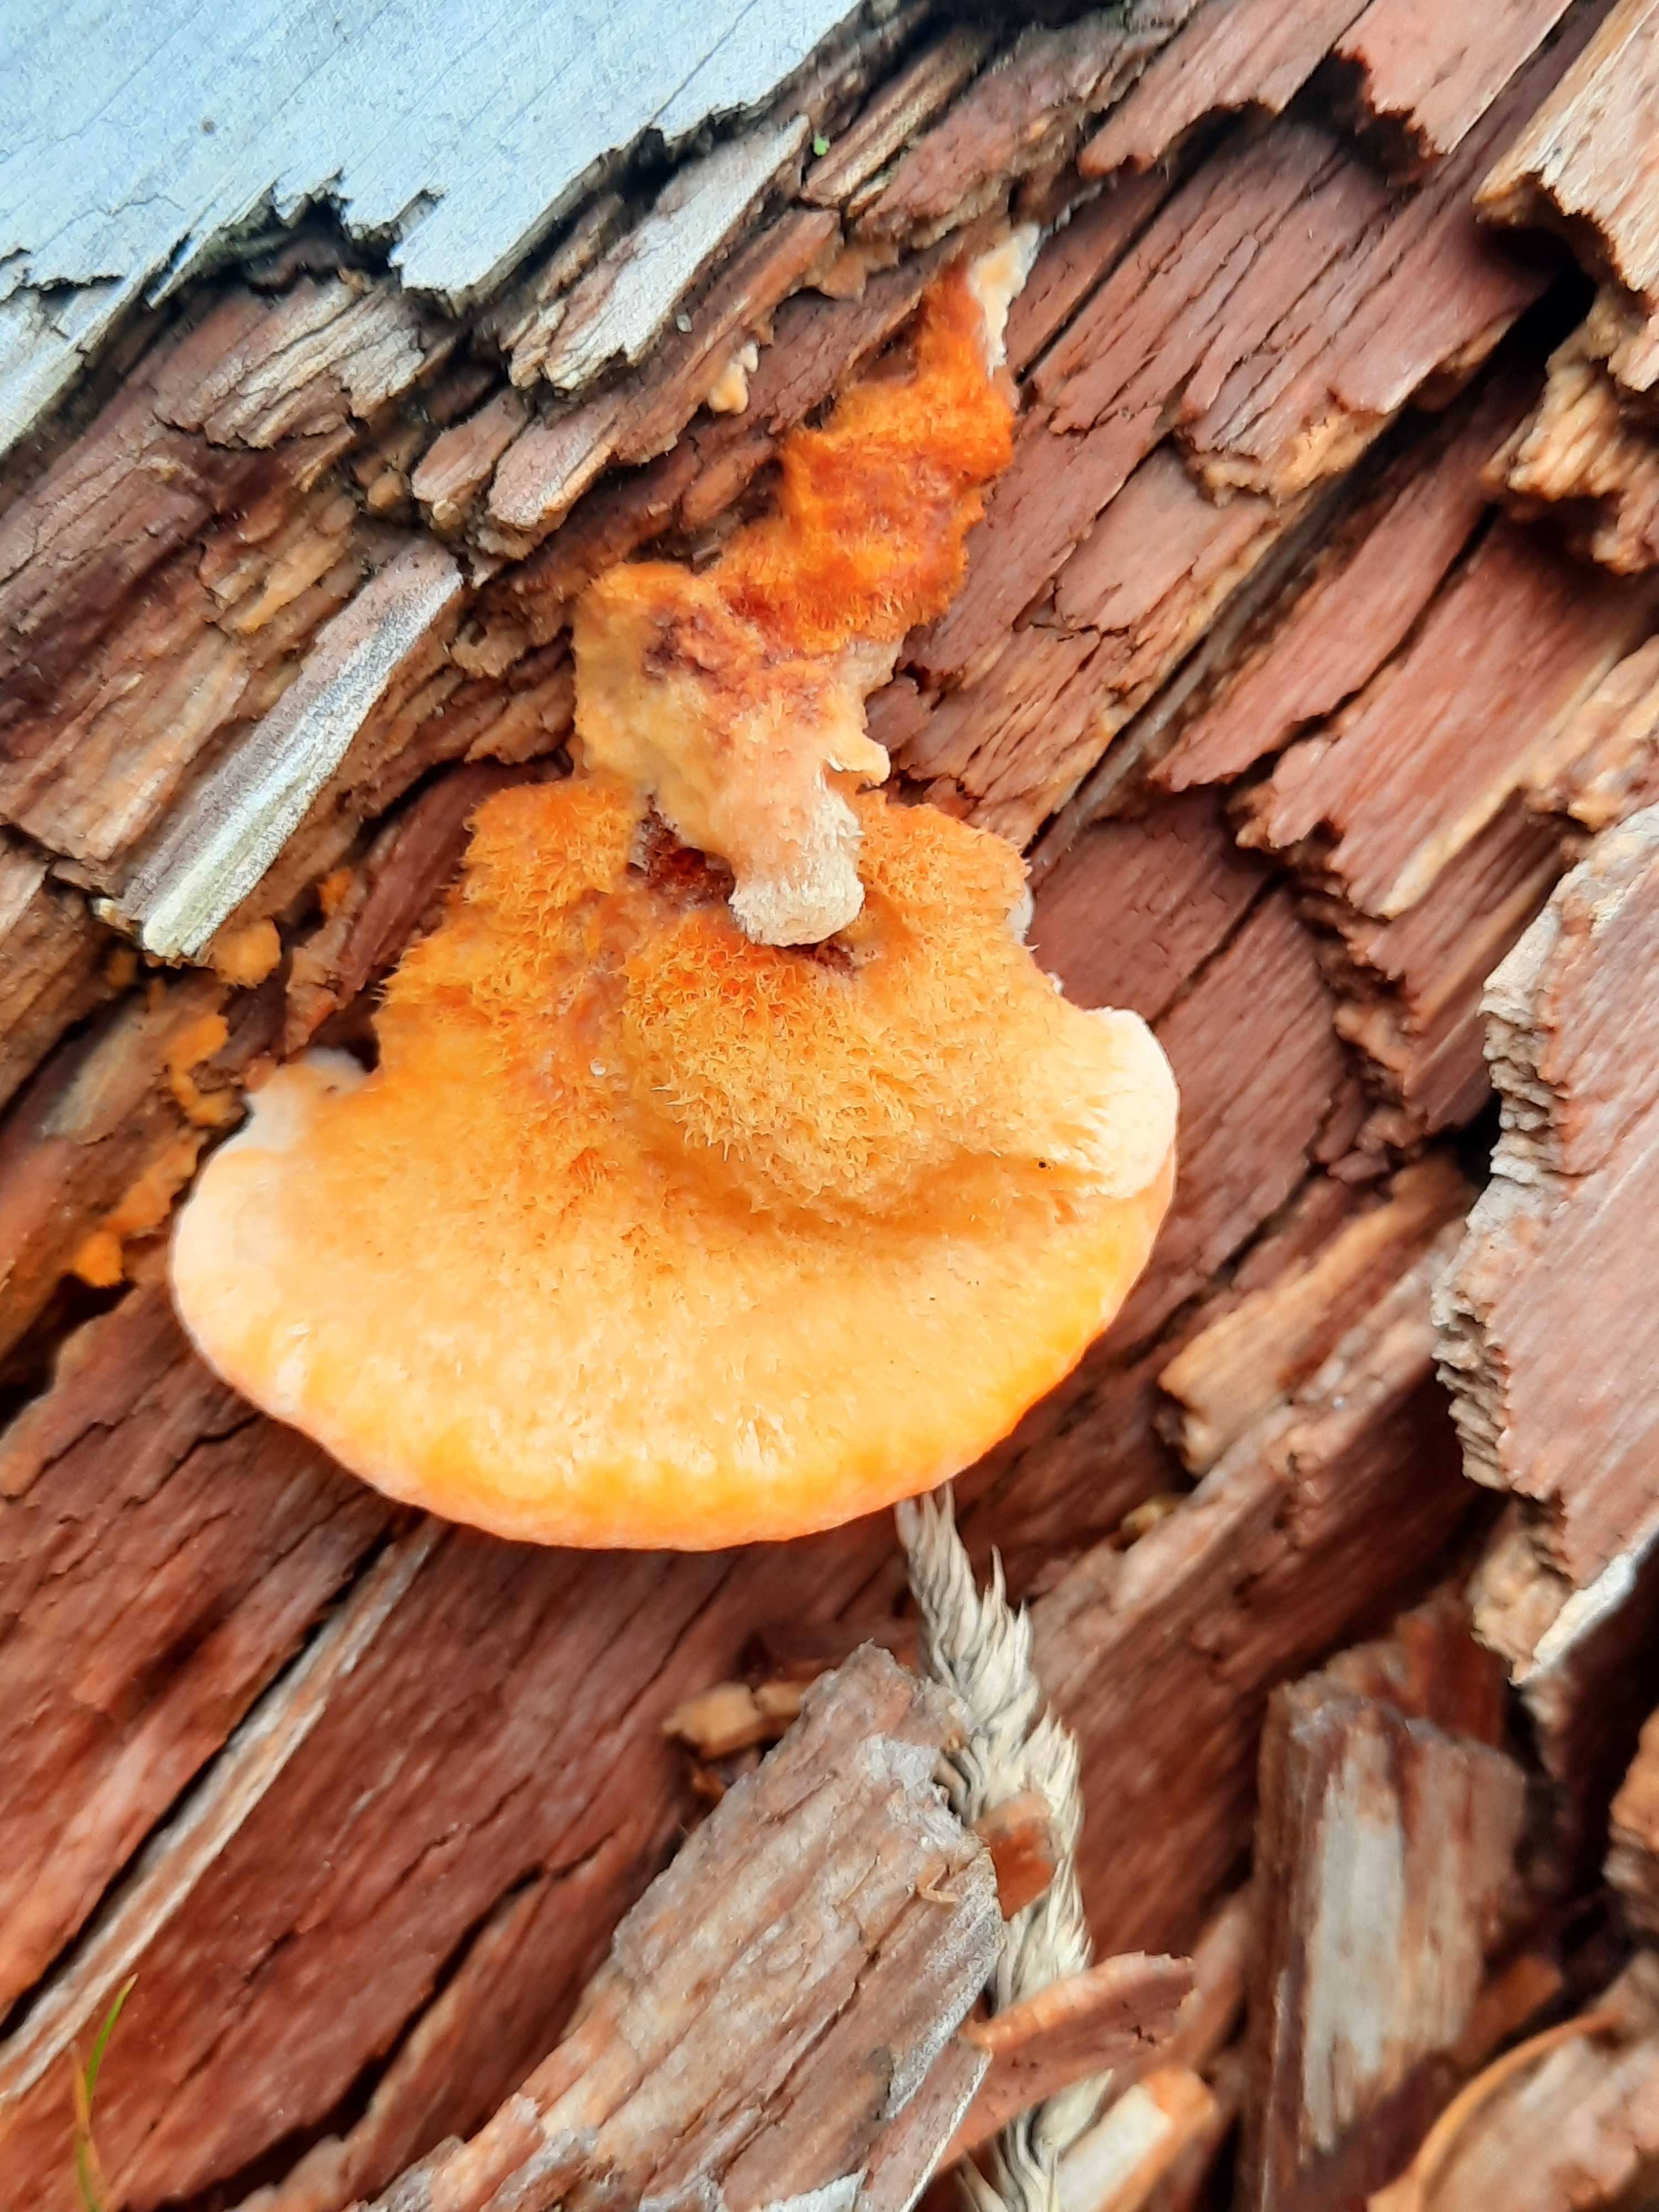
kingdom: Fungi
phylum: Basidiomycota
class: Agaricomycetes
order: Polyporales
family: Pycnoporellaceae
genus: Pycnoporellus
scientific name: Pycnoporellus fulgens
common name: flammeporesvamp
